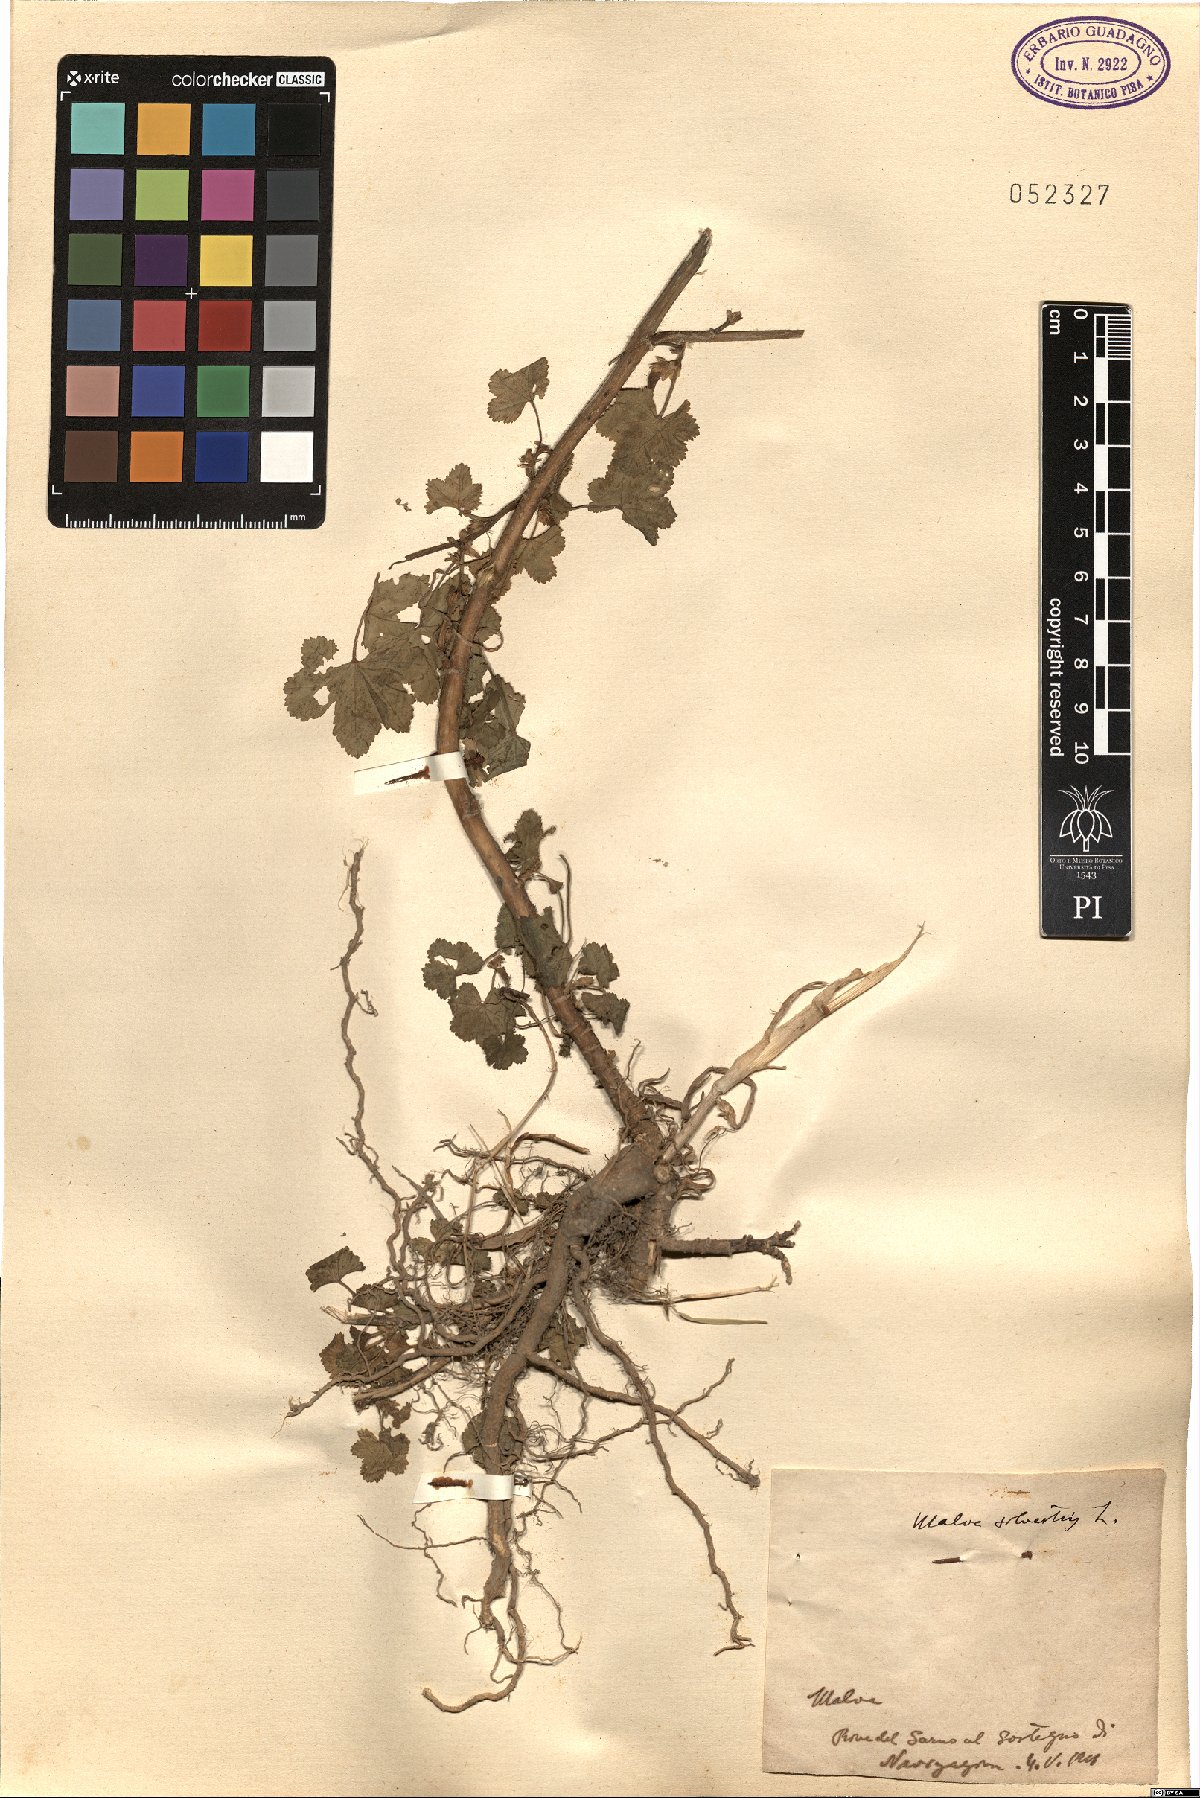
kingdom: Plantae
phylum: Tracheophyta
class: Magnoliopsida
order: Malvales
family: Malvaceae
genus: Malva
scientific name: Malva sylvestris
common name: Common mallow
